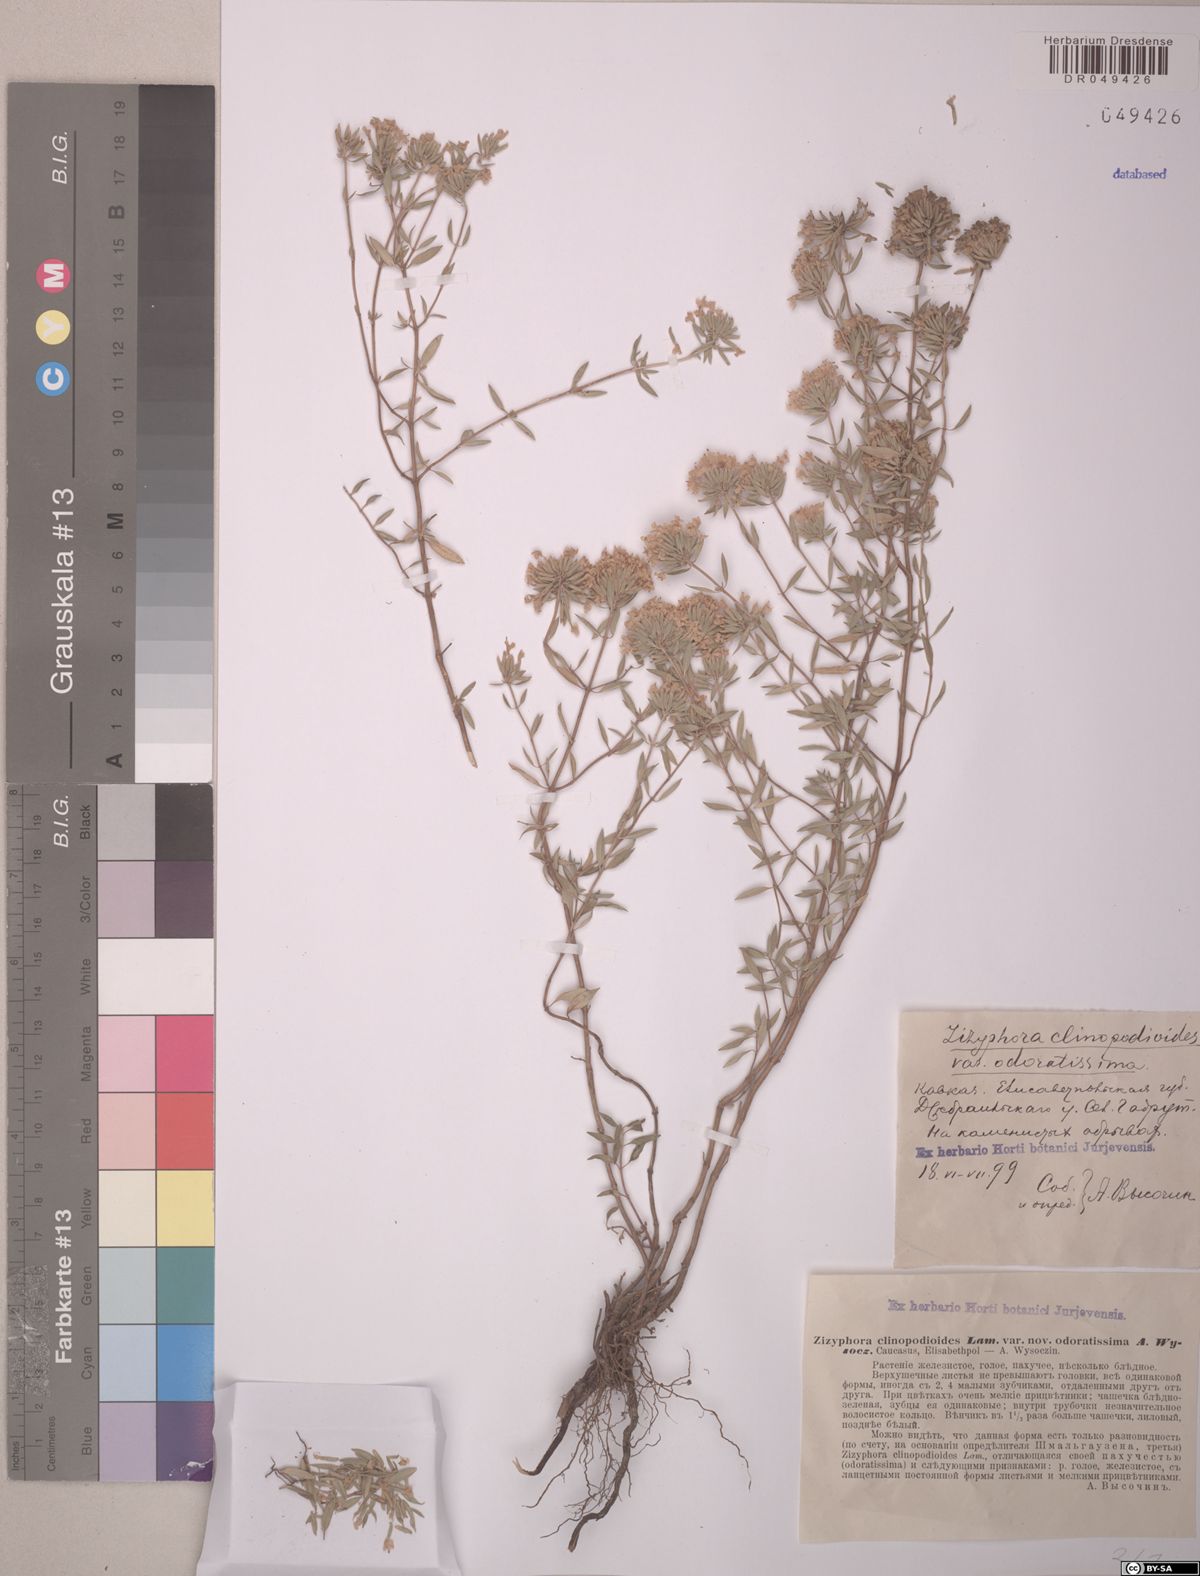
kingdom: Plantae
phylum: Tracheophyta
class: Magnoliopsida
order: Lamiales
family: Lamiaceae
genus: Ziziphora
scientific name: Ziziphora clinopodioides
